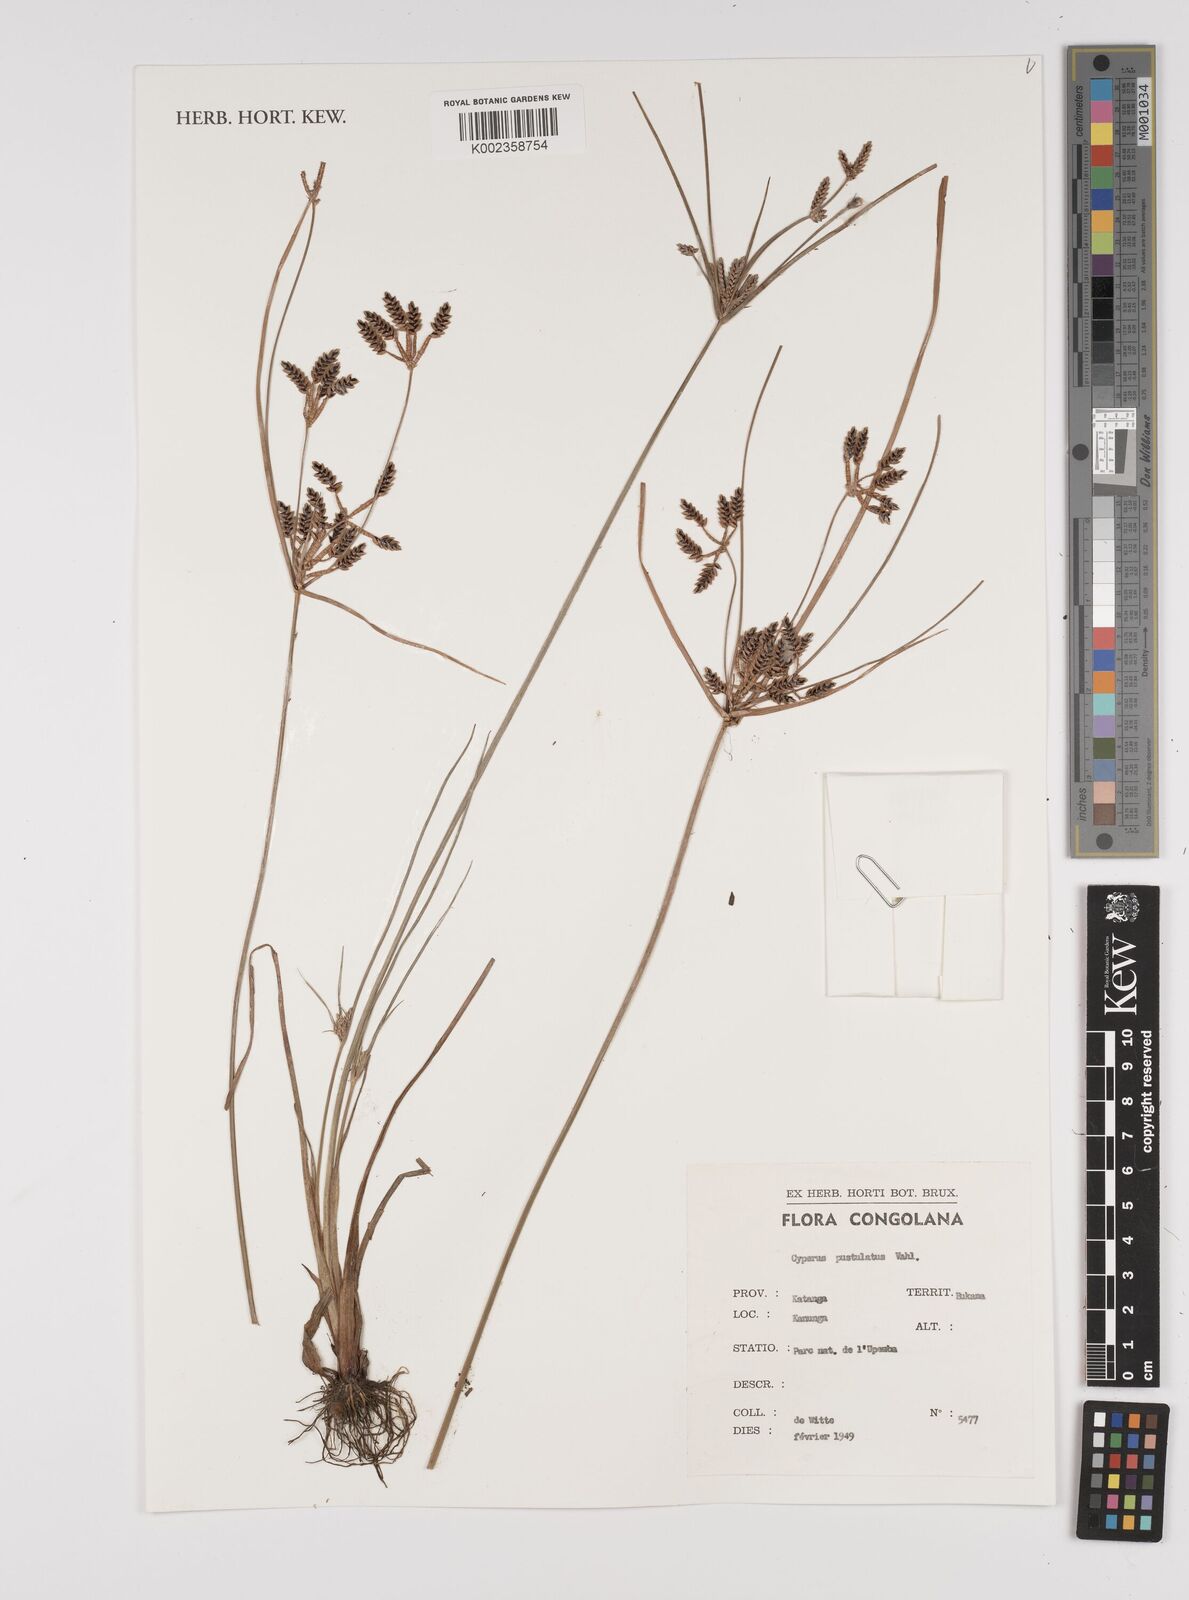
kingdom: Plantae
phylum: Tracheophyta
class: Liliopsida
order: Poales
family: Cyperaceae
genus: Cyperus
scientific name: Cyperus pustulatus
